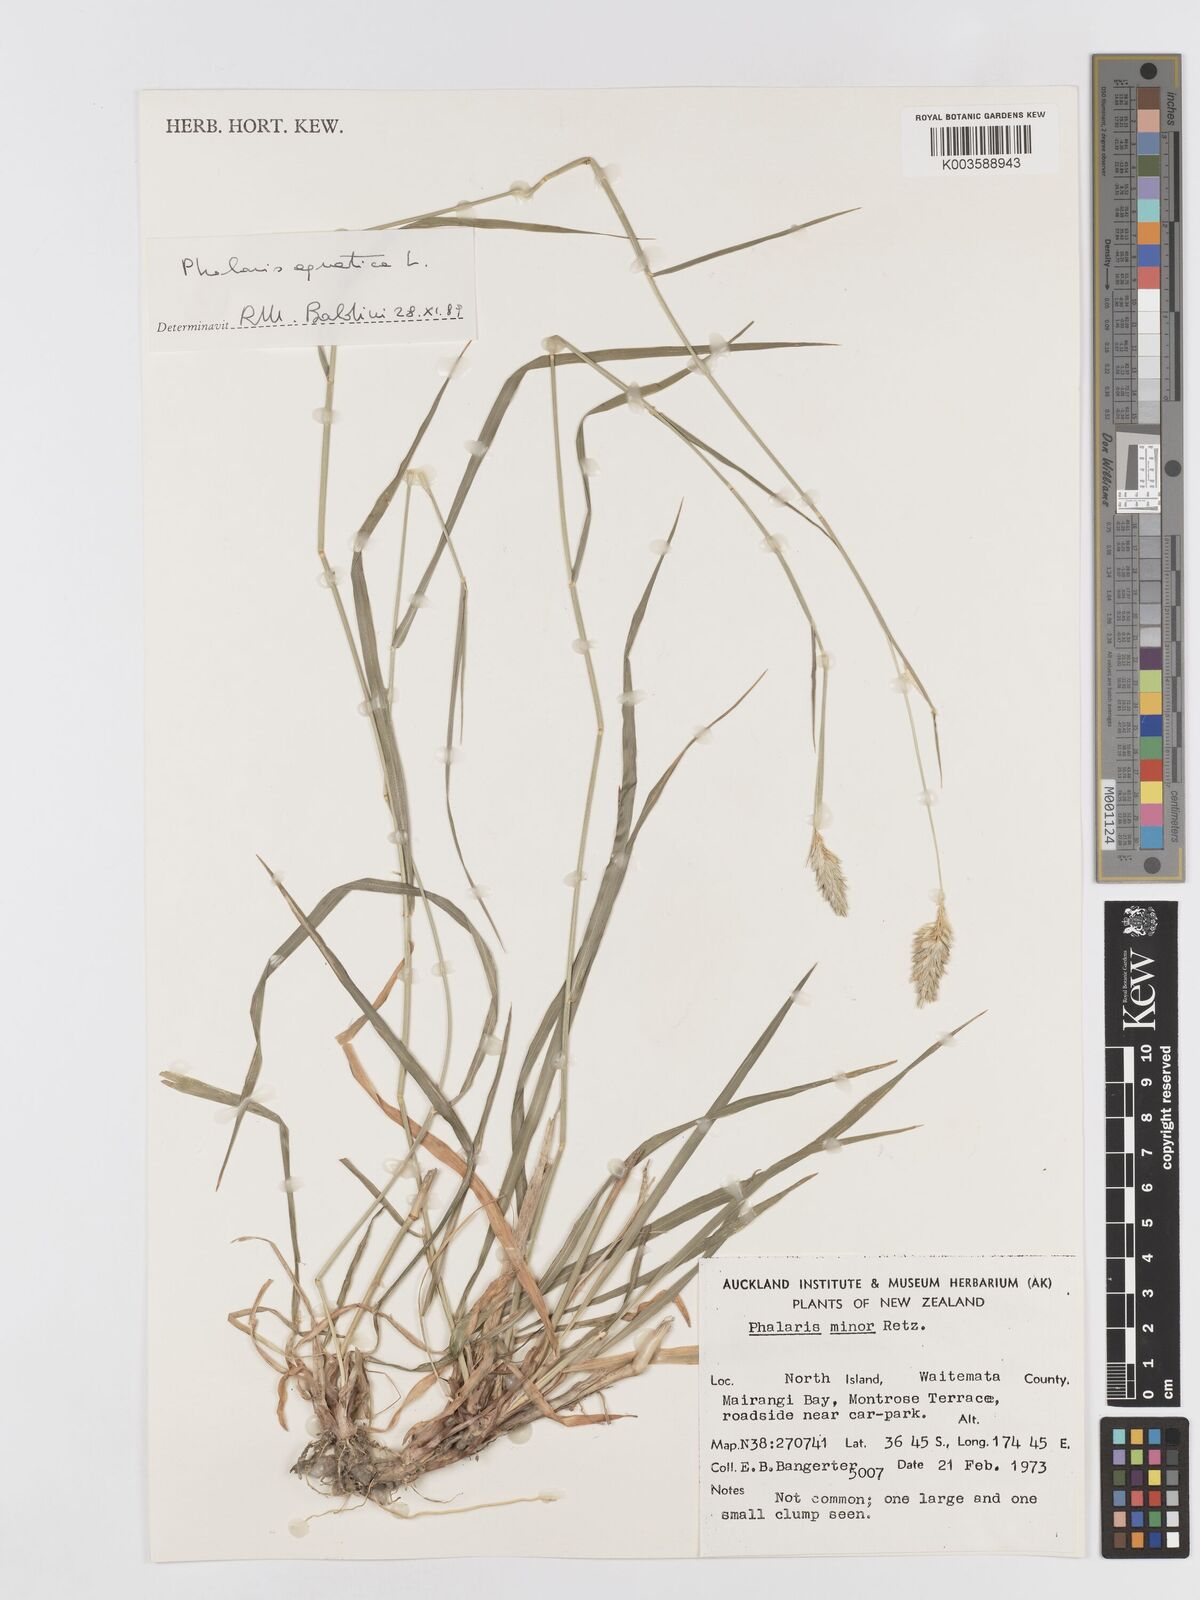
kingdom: Plantae
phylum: Tracheophyta
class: Liliopsida
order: Poales
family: Poaceae
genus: Phalaris
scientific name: Phalaris minor
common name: Littleseed canarygrass
